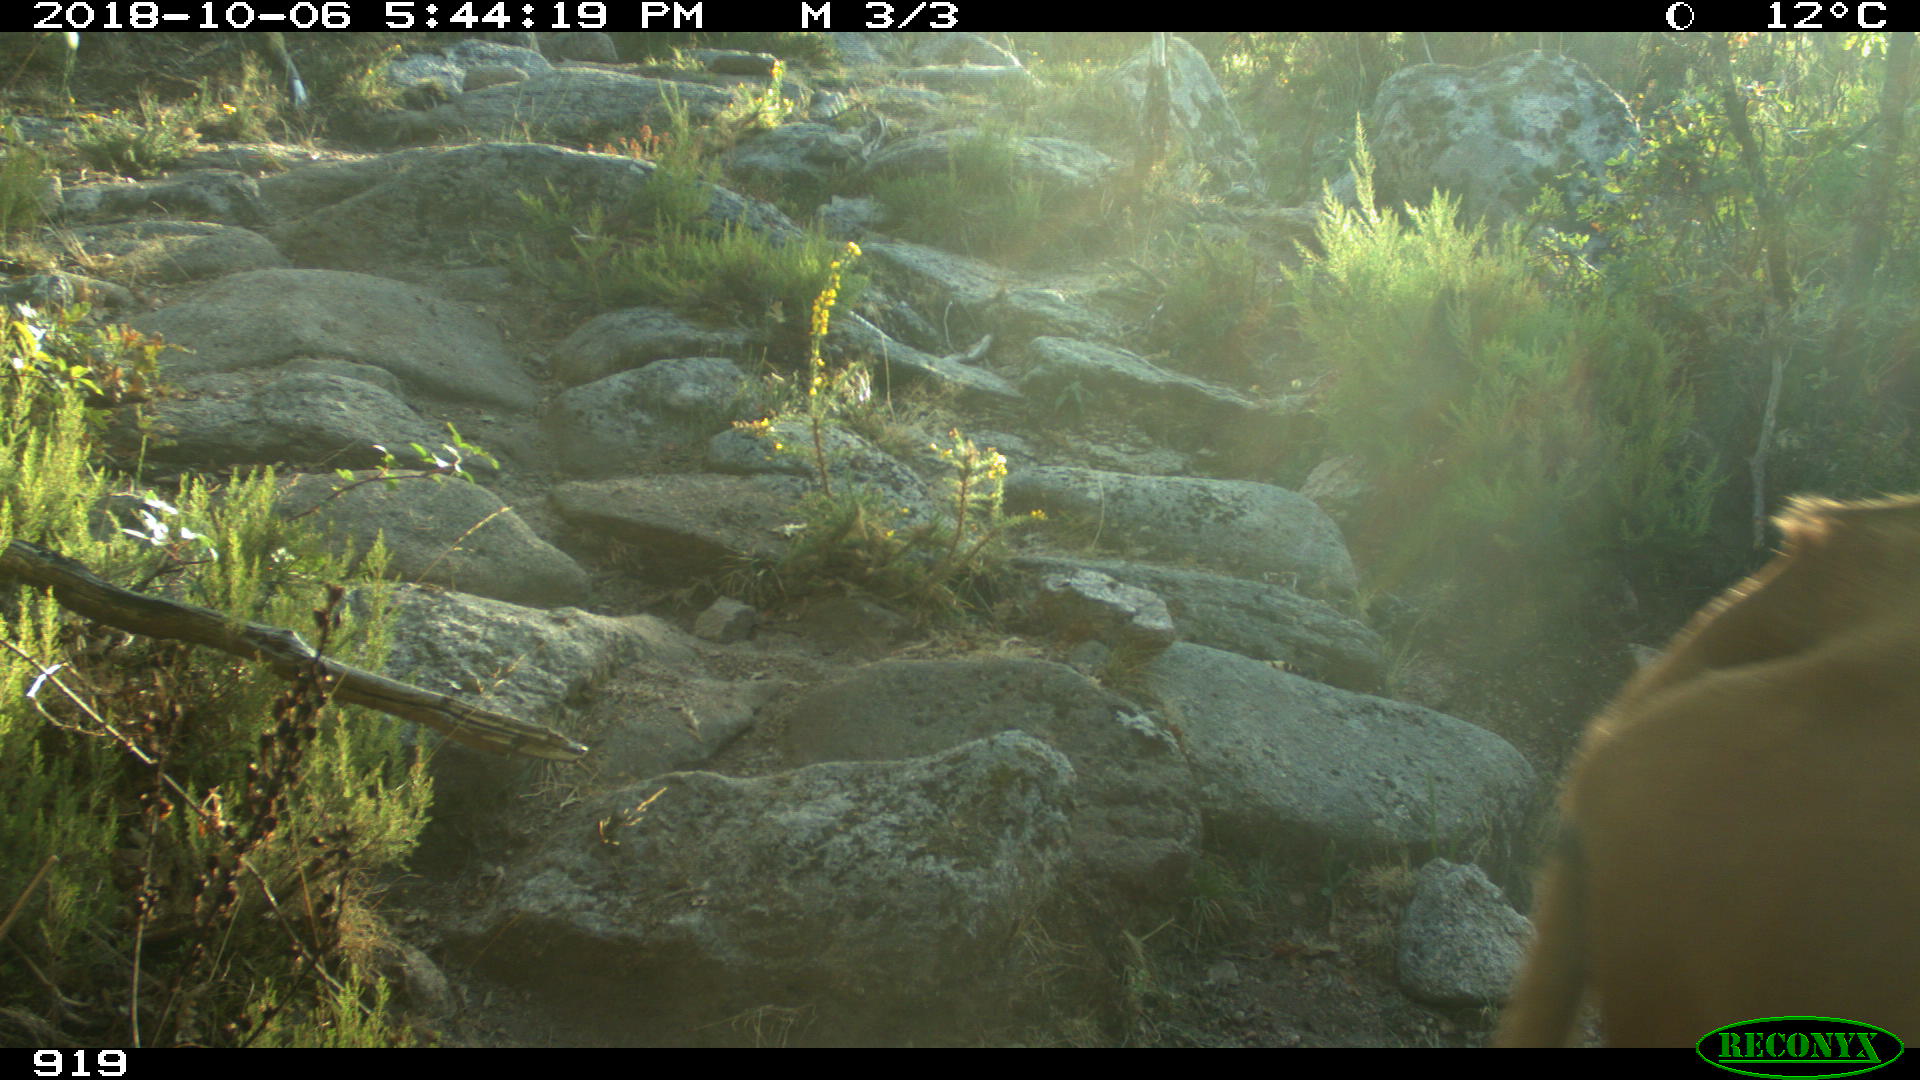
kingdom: Animalia
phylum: Chordata
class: Mammalia
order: Artiodactyla
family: Bovidae
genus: Bos
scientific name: Bos taurus
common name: Domesticated cattle
